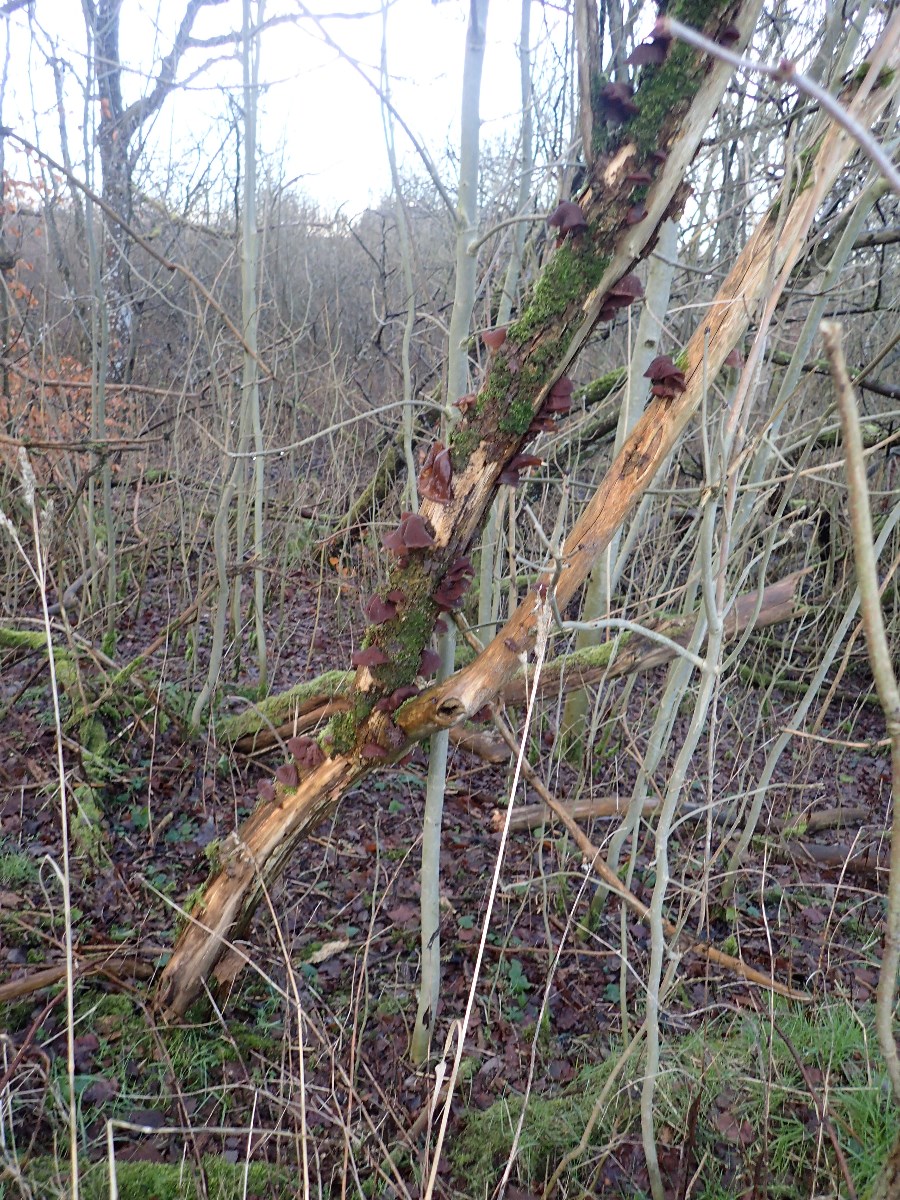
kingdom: Fungi
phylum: Basidiomycota
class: Agaricomycetes
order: Auriculariales
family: Auriculariaceae
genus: Auricularia
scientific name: Auricularia auricula-judae
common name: almindelig judasøre
